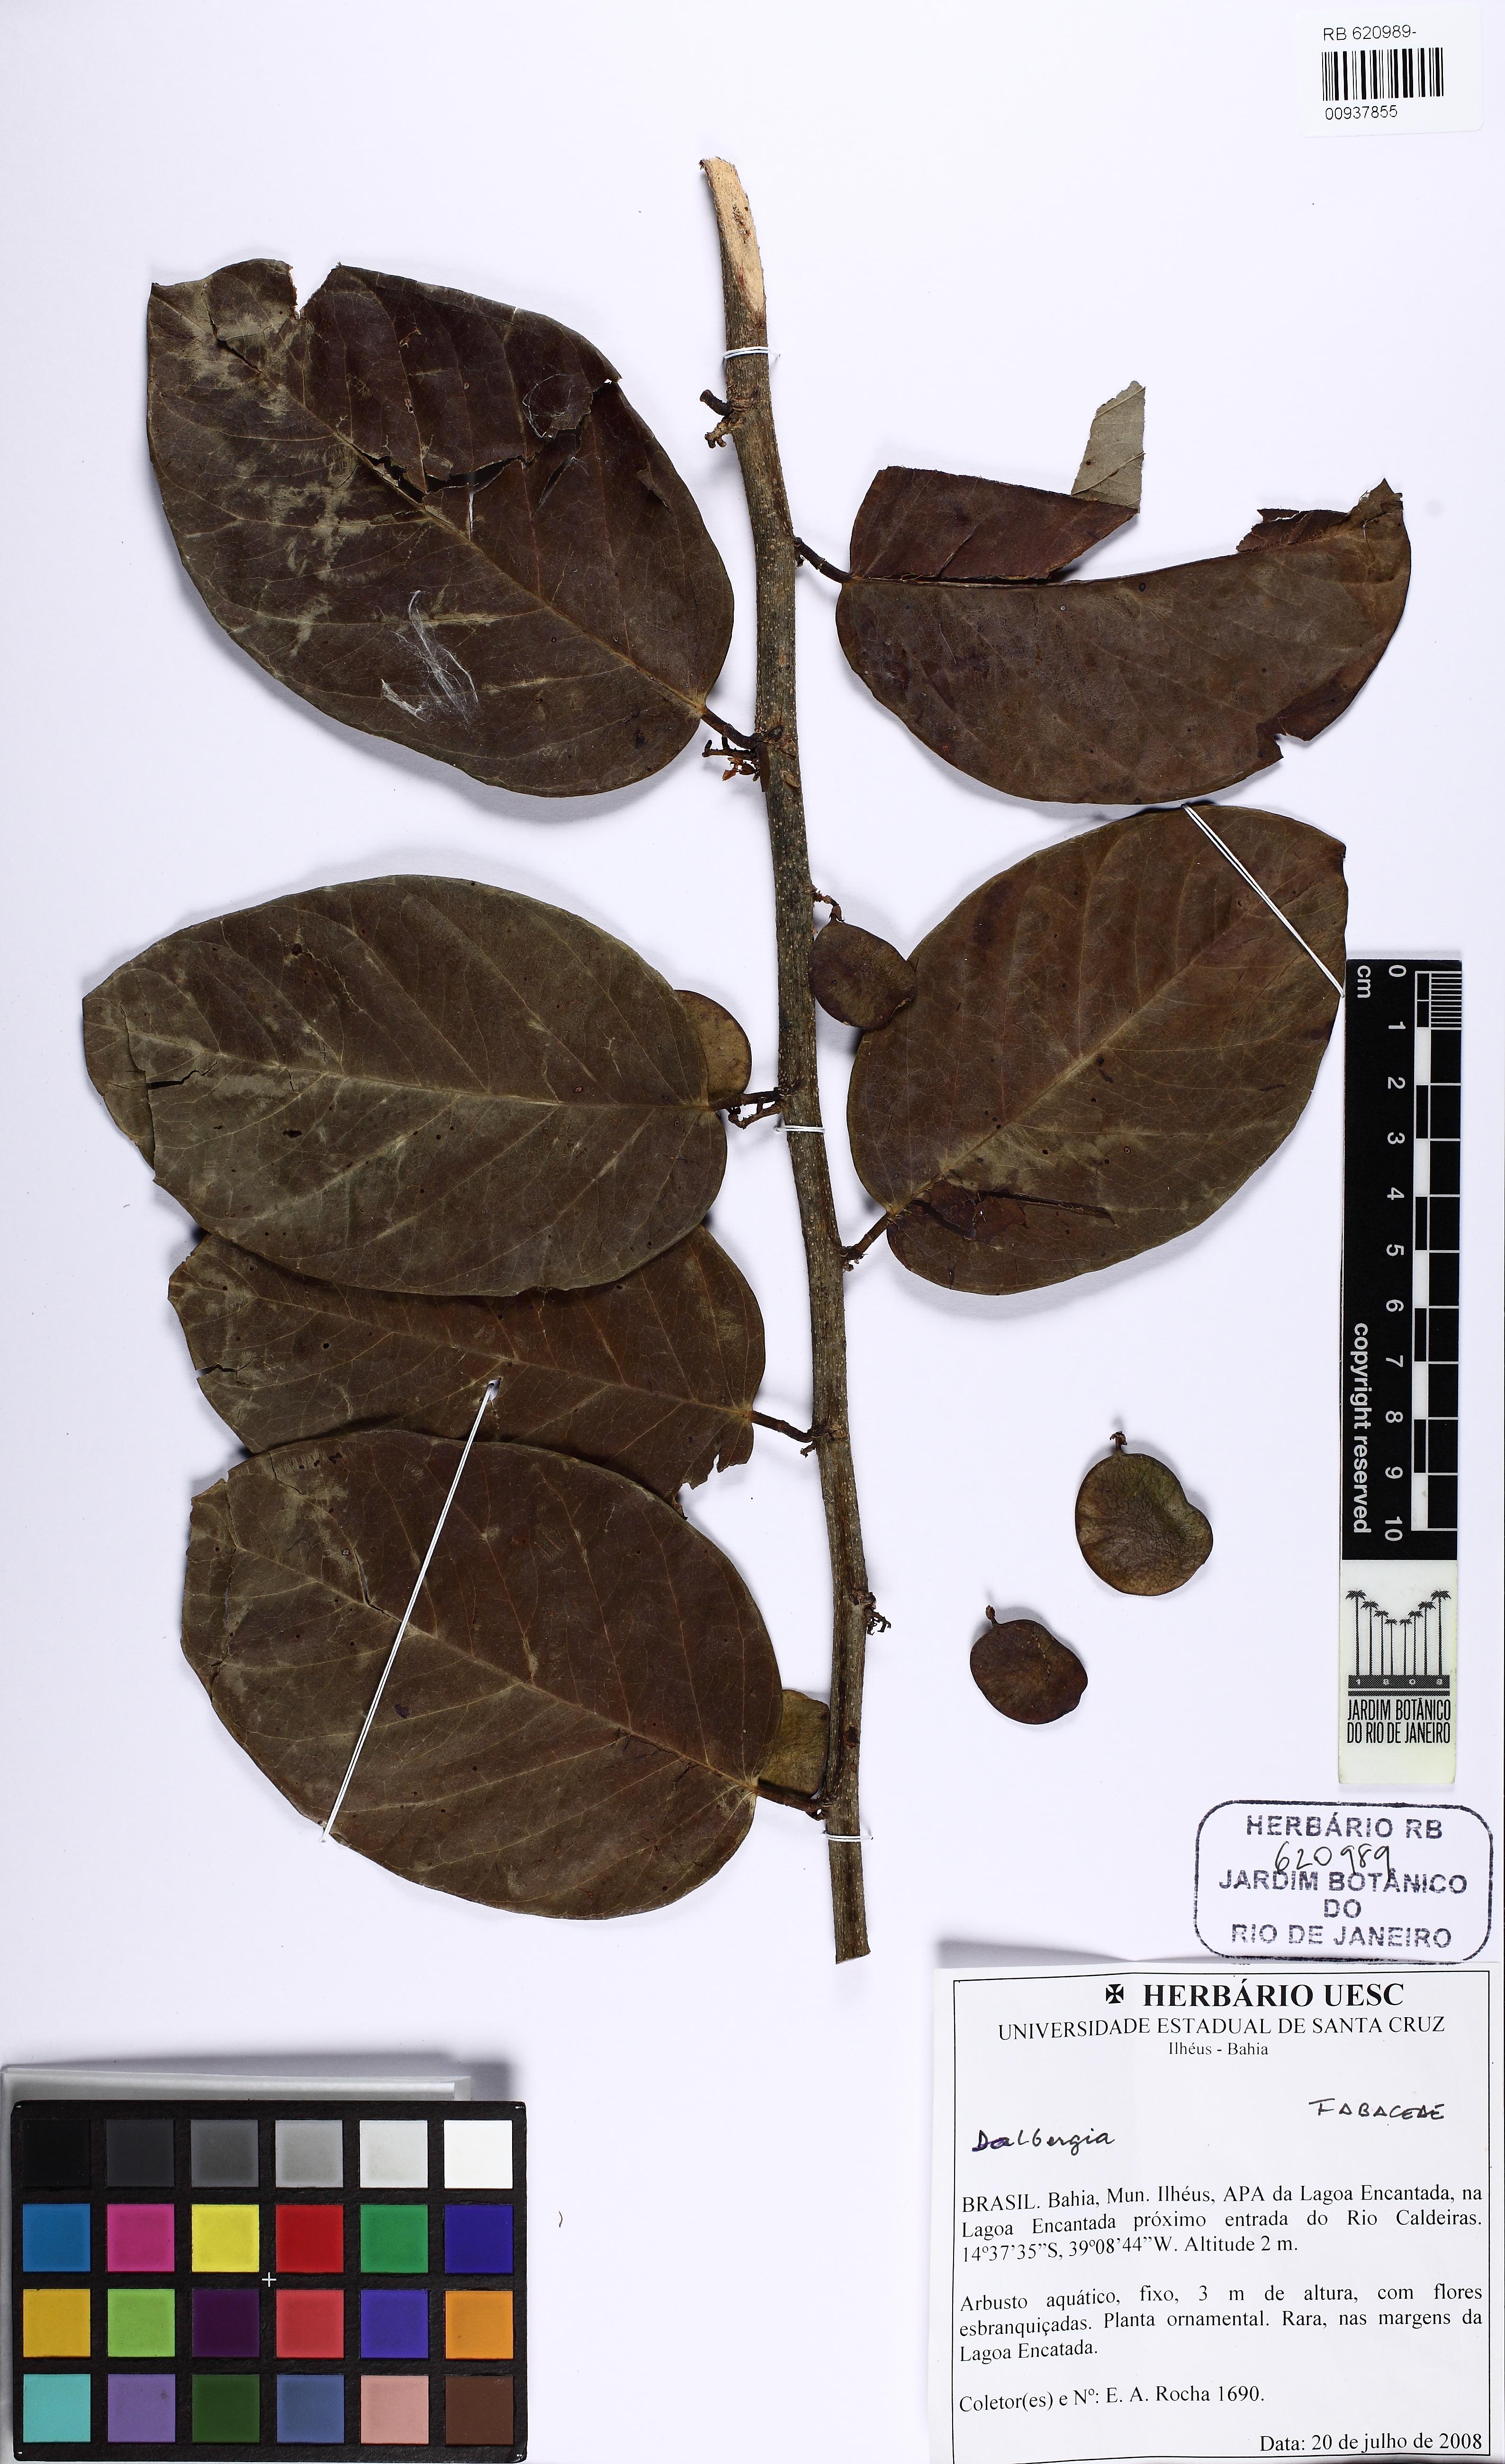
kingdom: Plantae
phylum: Tracheophyta
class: Magnoliopsida
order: Fabales
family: Fabaceae
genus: Dalbergia
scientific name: Dalbergia
